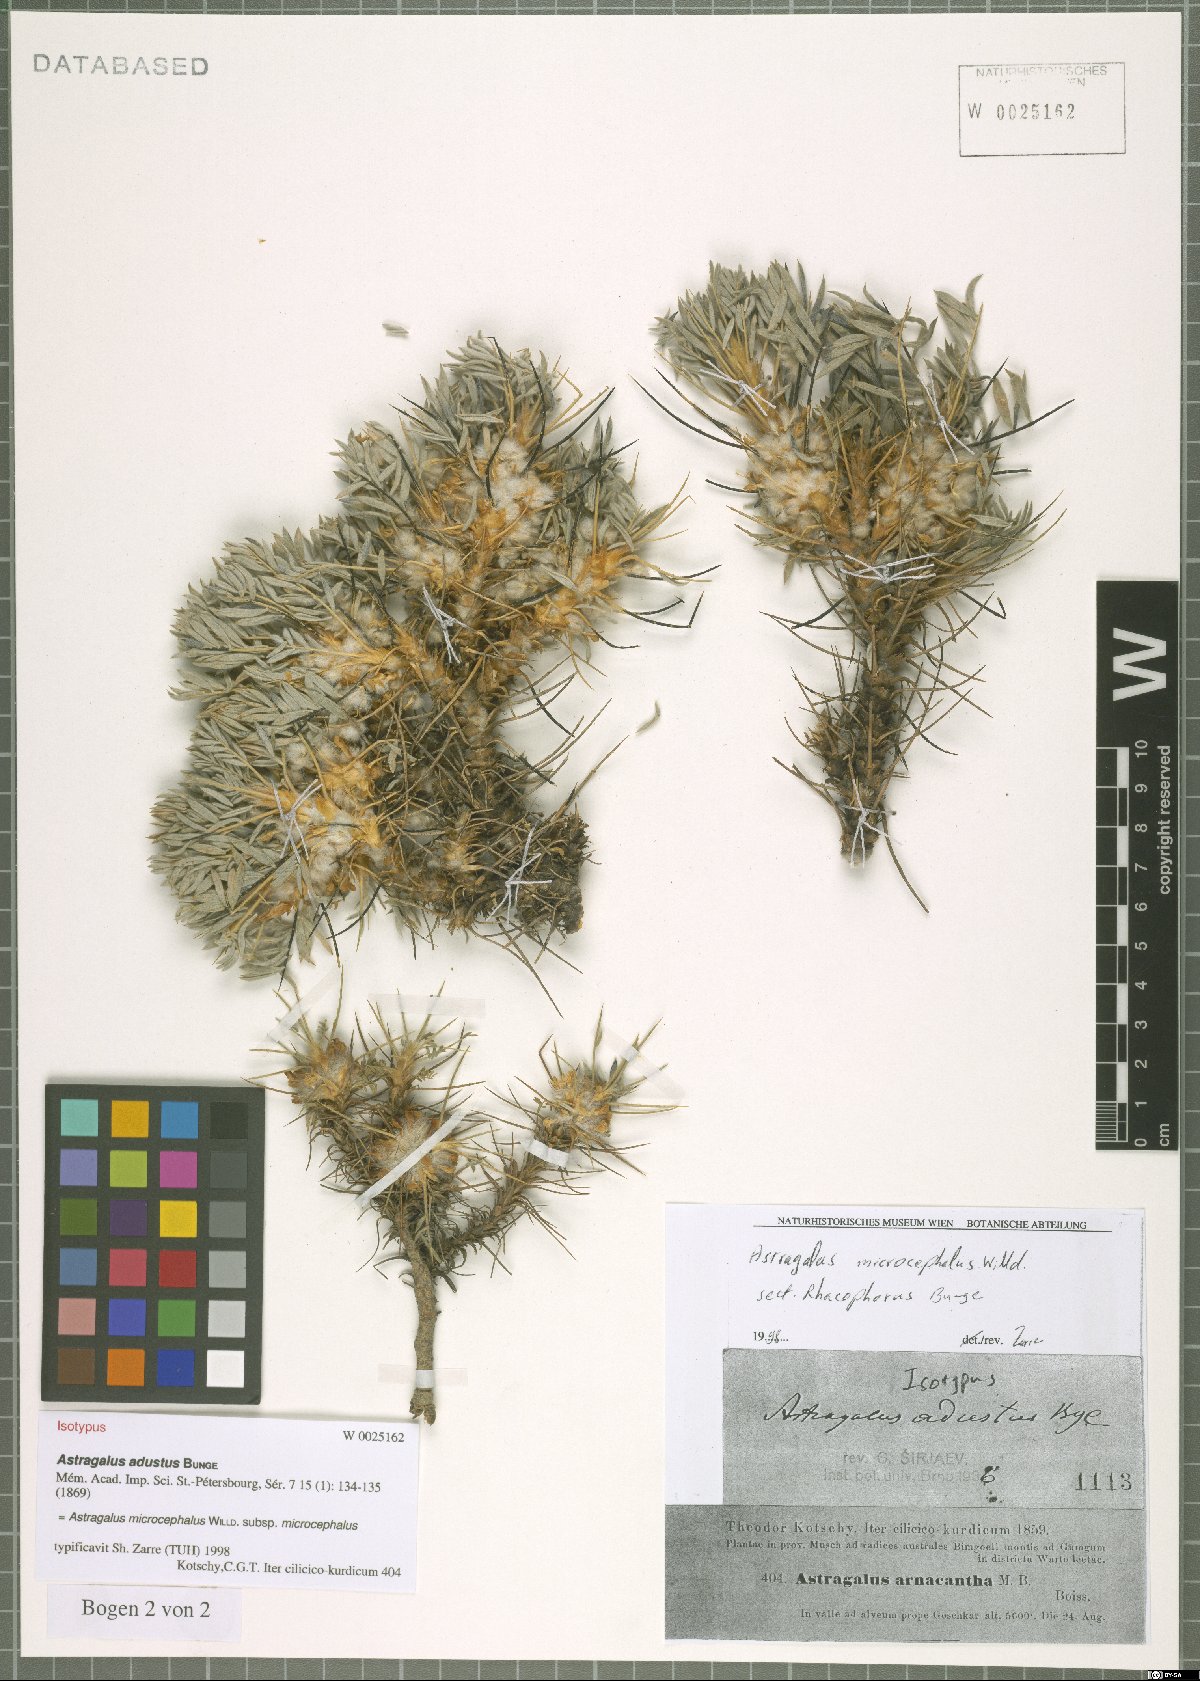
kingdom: Plantae
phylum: Tracheophyta
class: Magnoliopsida
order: Fabales
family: Fabaceae
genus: Astragalus
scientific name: Astragalus microcephalus
